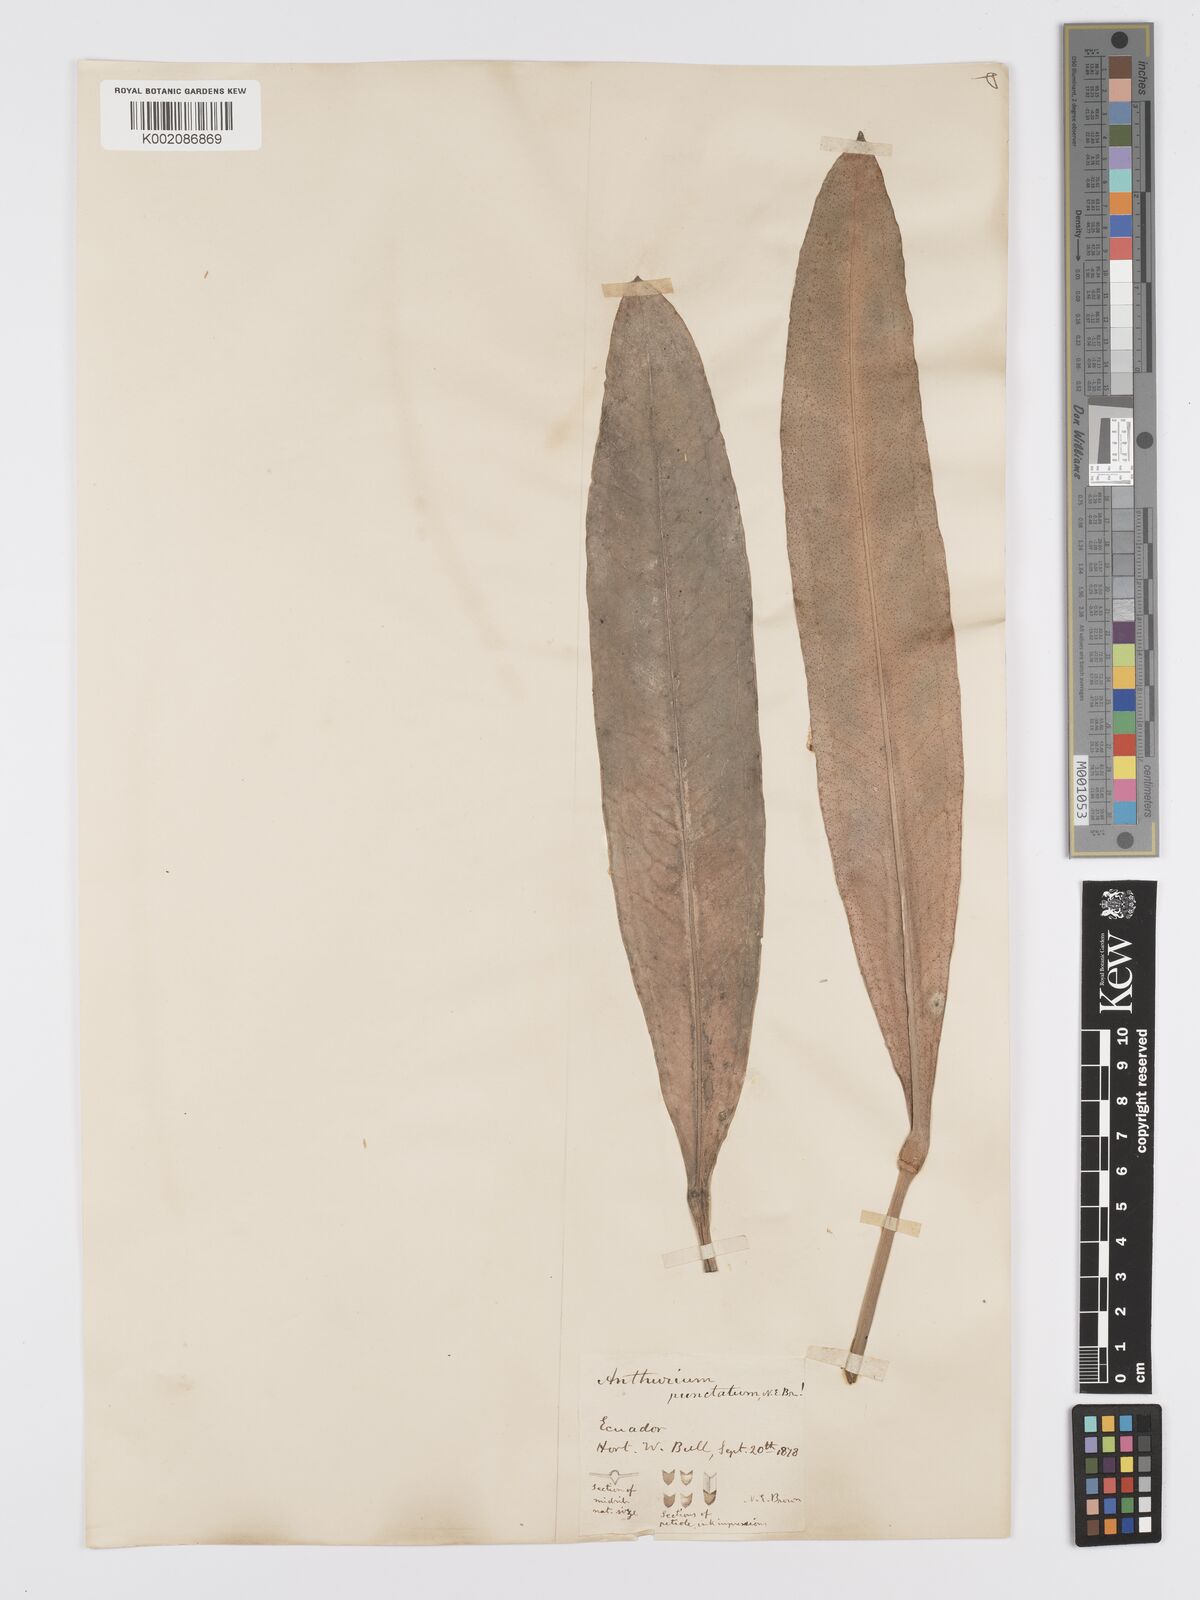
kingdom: Plantae
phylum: Tracheophyta
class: Liliopsida
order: Alismatales
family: Araceae
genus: Anthurium
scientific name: Anthurium punctatum
